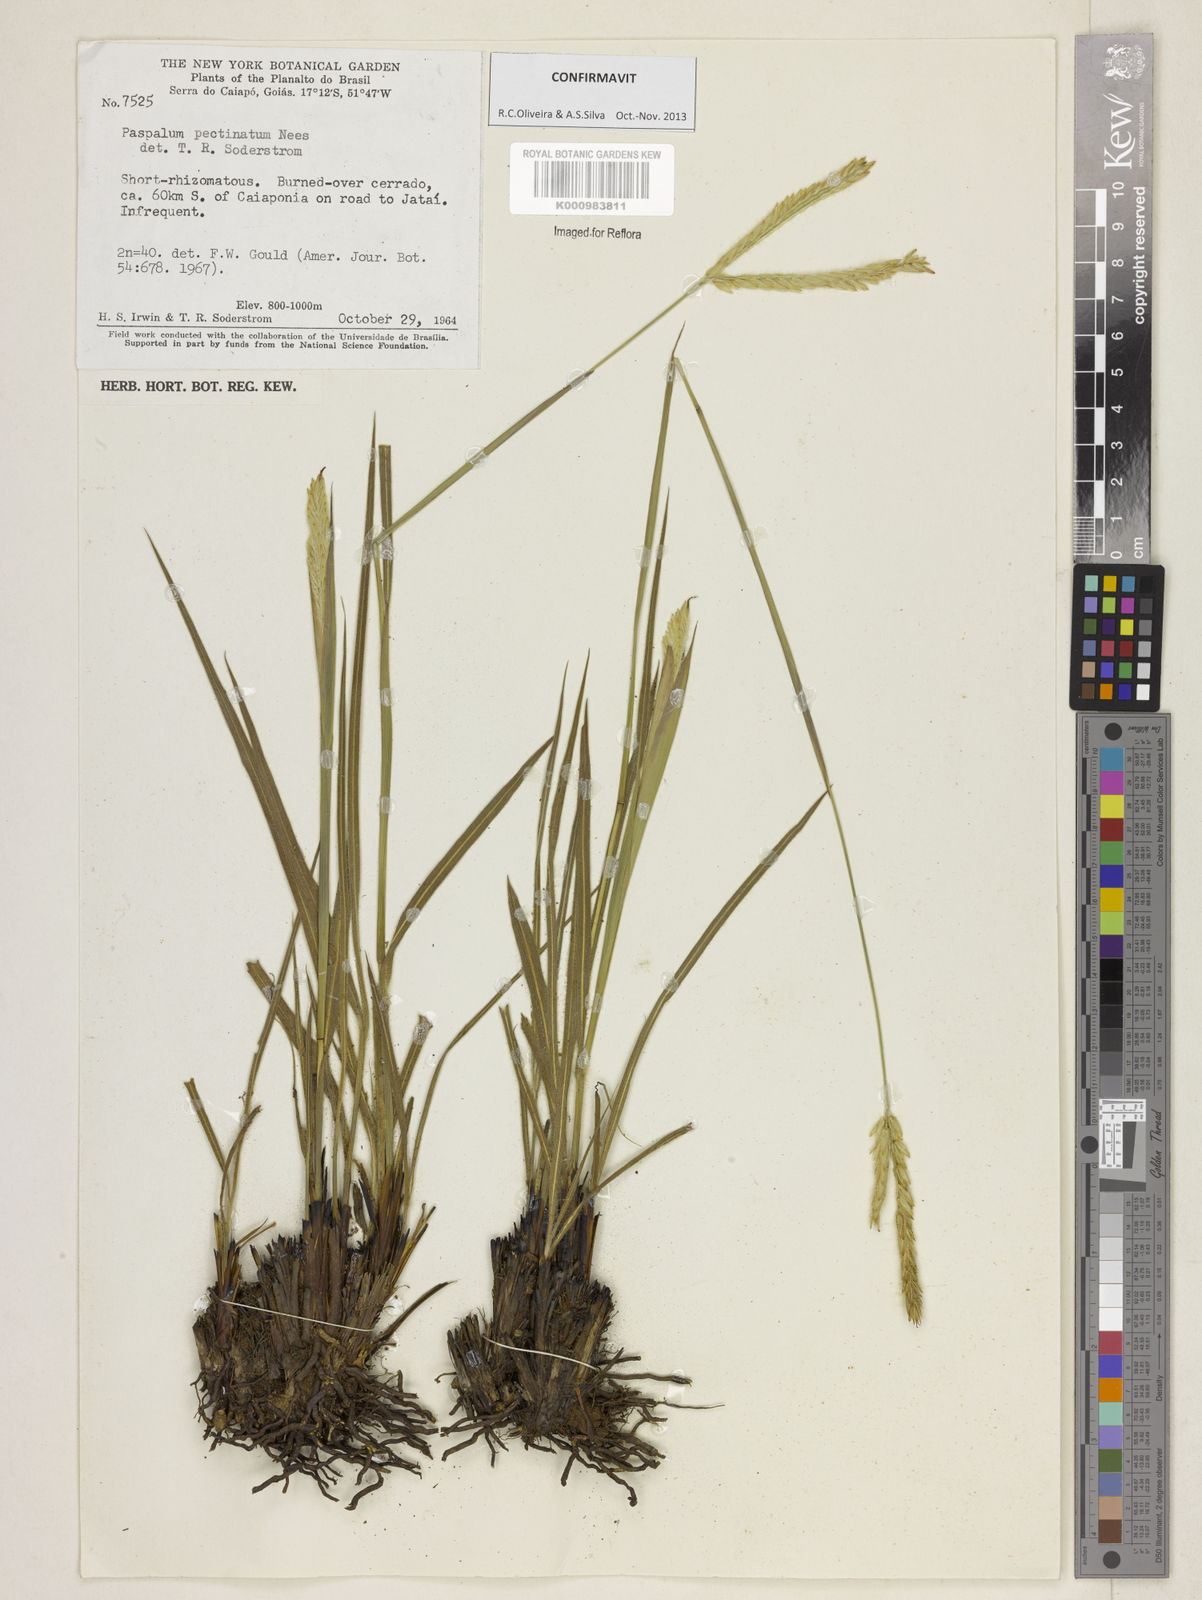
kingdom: Plantae
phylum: Tracheophyta
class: Liliopsida
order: Poales
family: Poaceae
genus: Paspalum
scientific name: Paspalum
